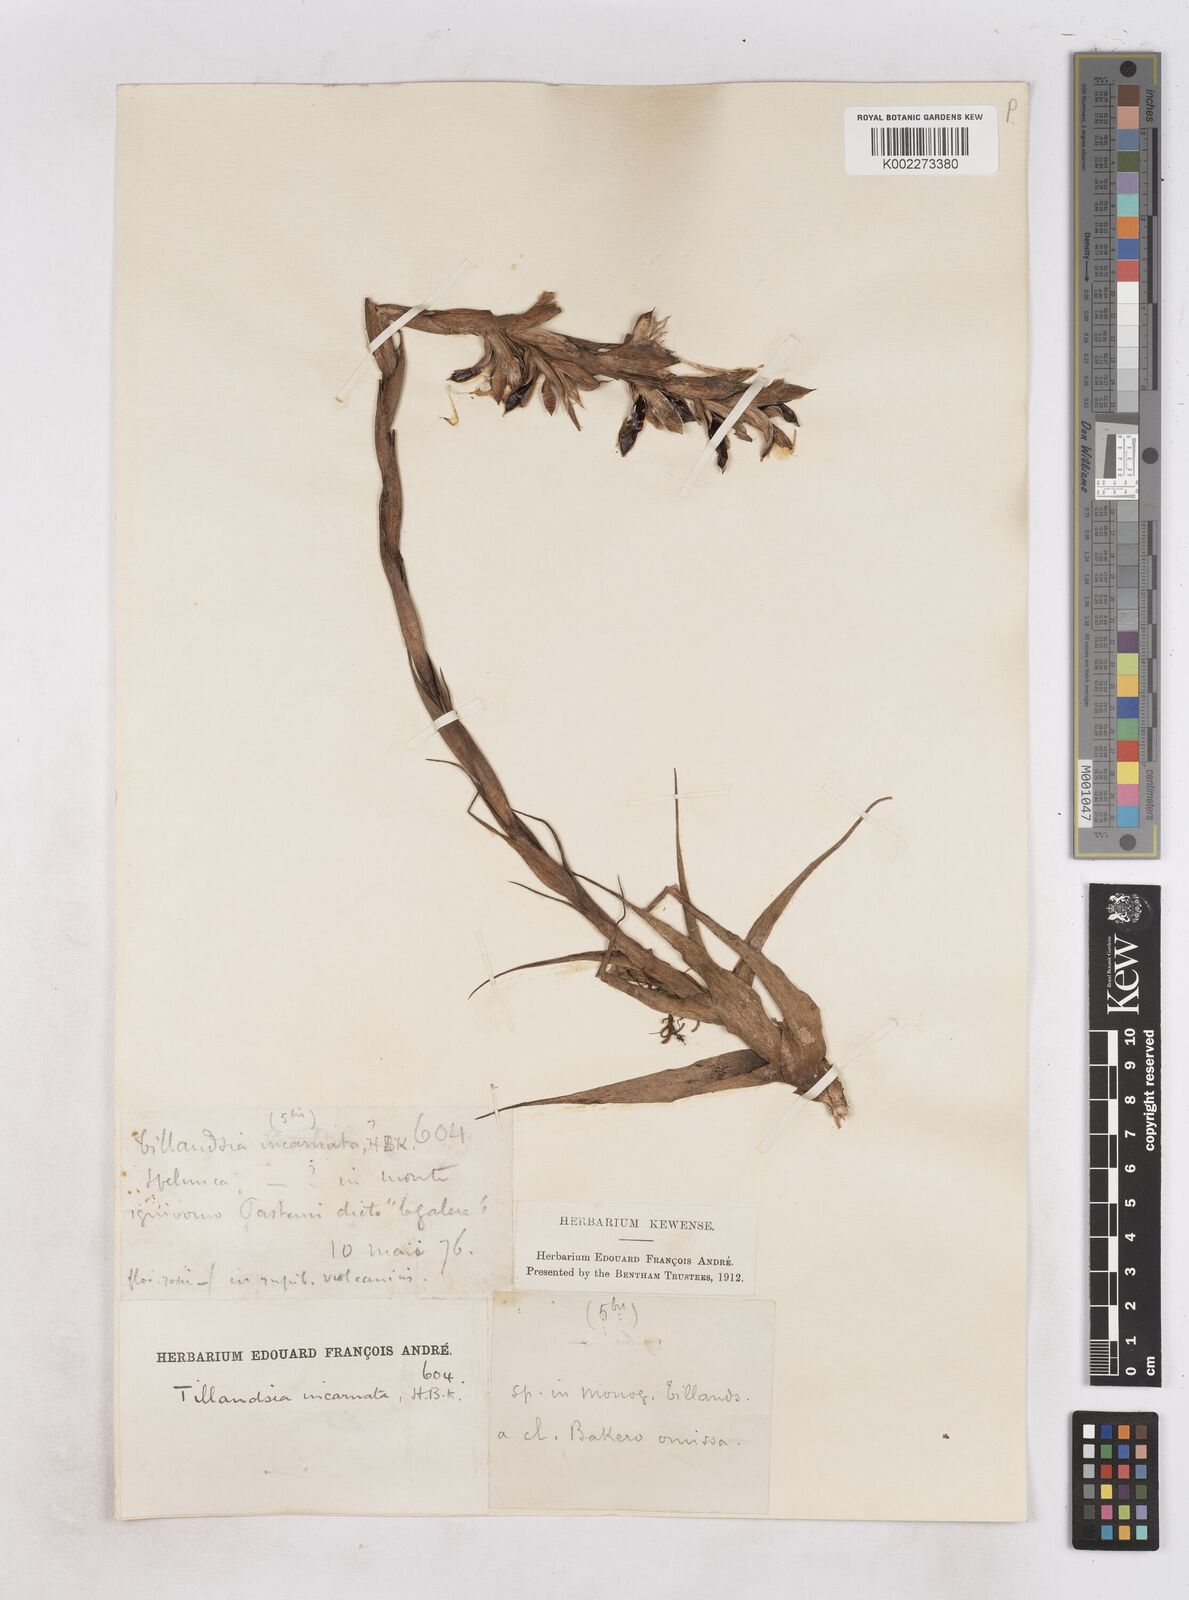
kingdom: Plantae
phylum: Tracheophyta
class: Liliopsida
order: Poales
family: Bromeliaceae
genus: Tillandsia
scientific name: Tillandsia incarnata
